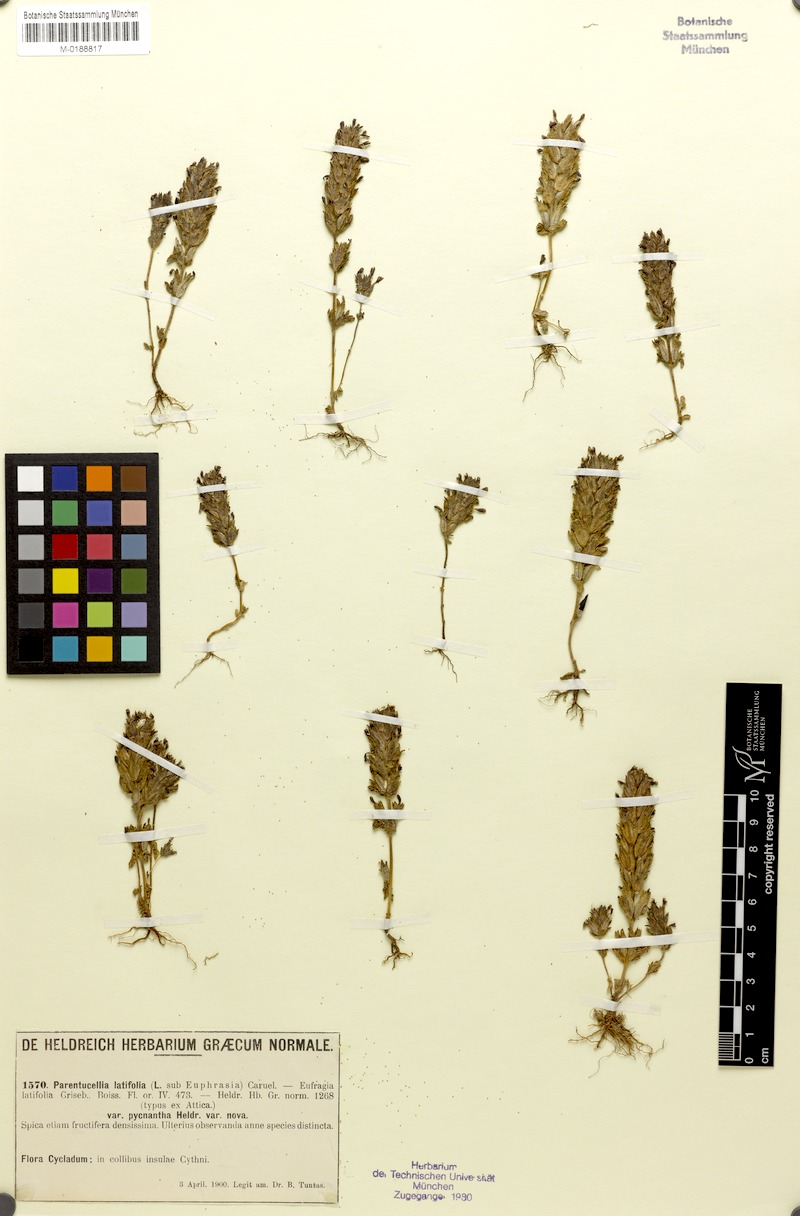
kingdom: Plantae
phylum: Tracheophyta
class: Magnoliopsida
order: Lamiales
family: Orobanchaceae
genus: Parentucellia
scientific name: Parentucellia latifolia
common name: Broadleaf glandweed
